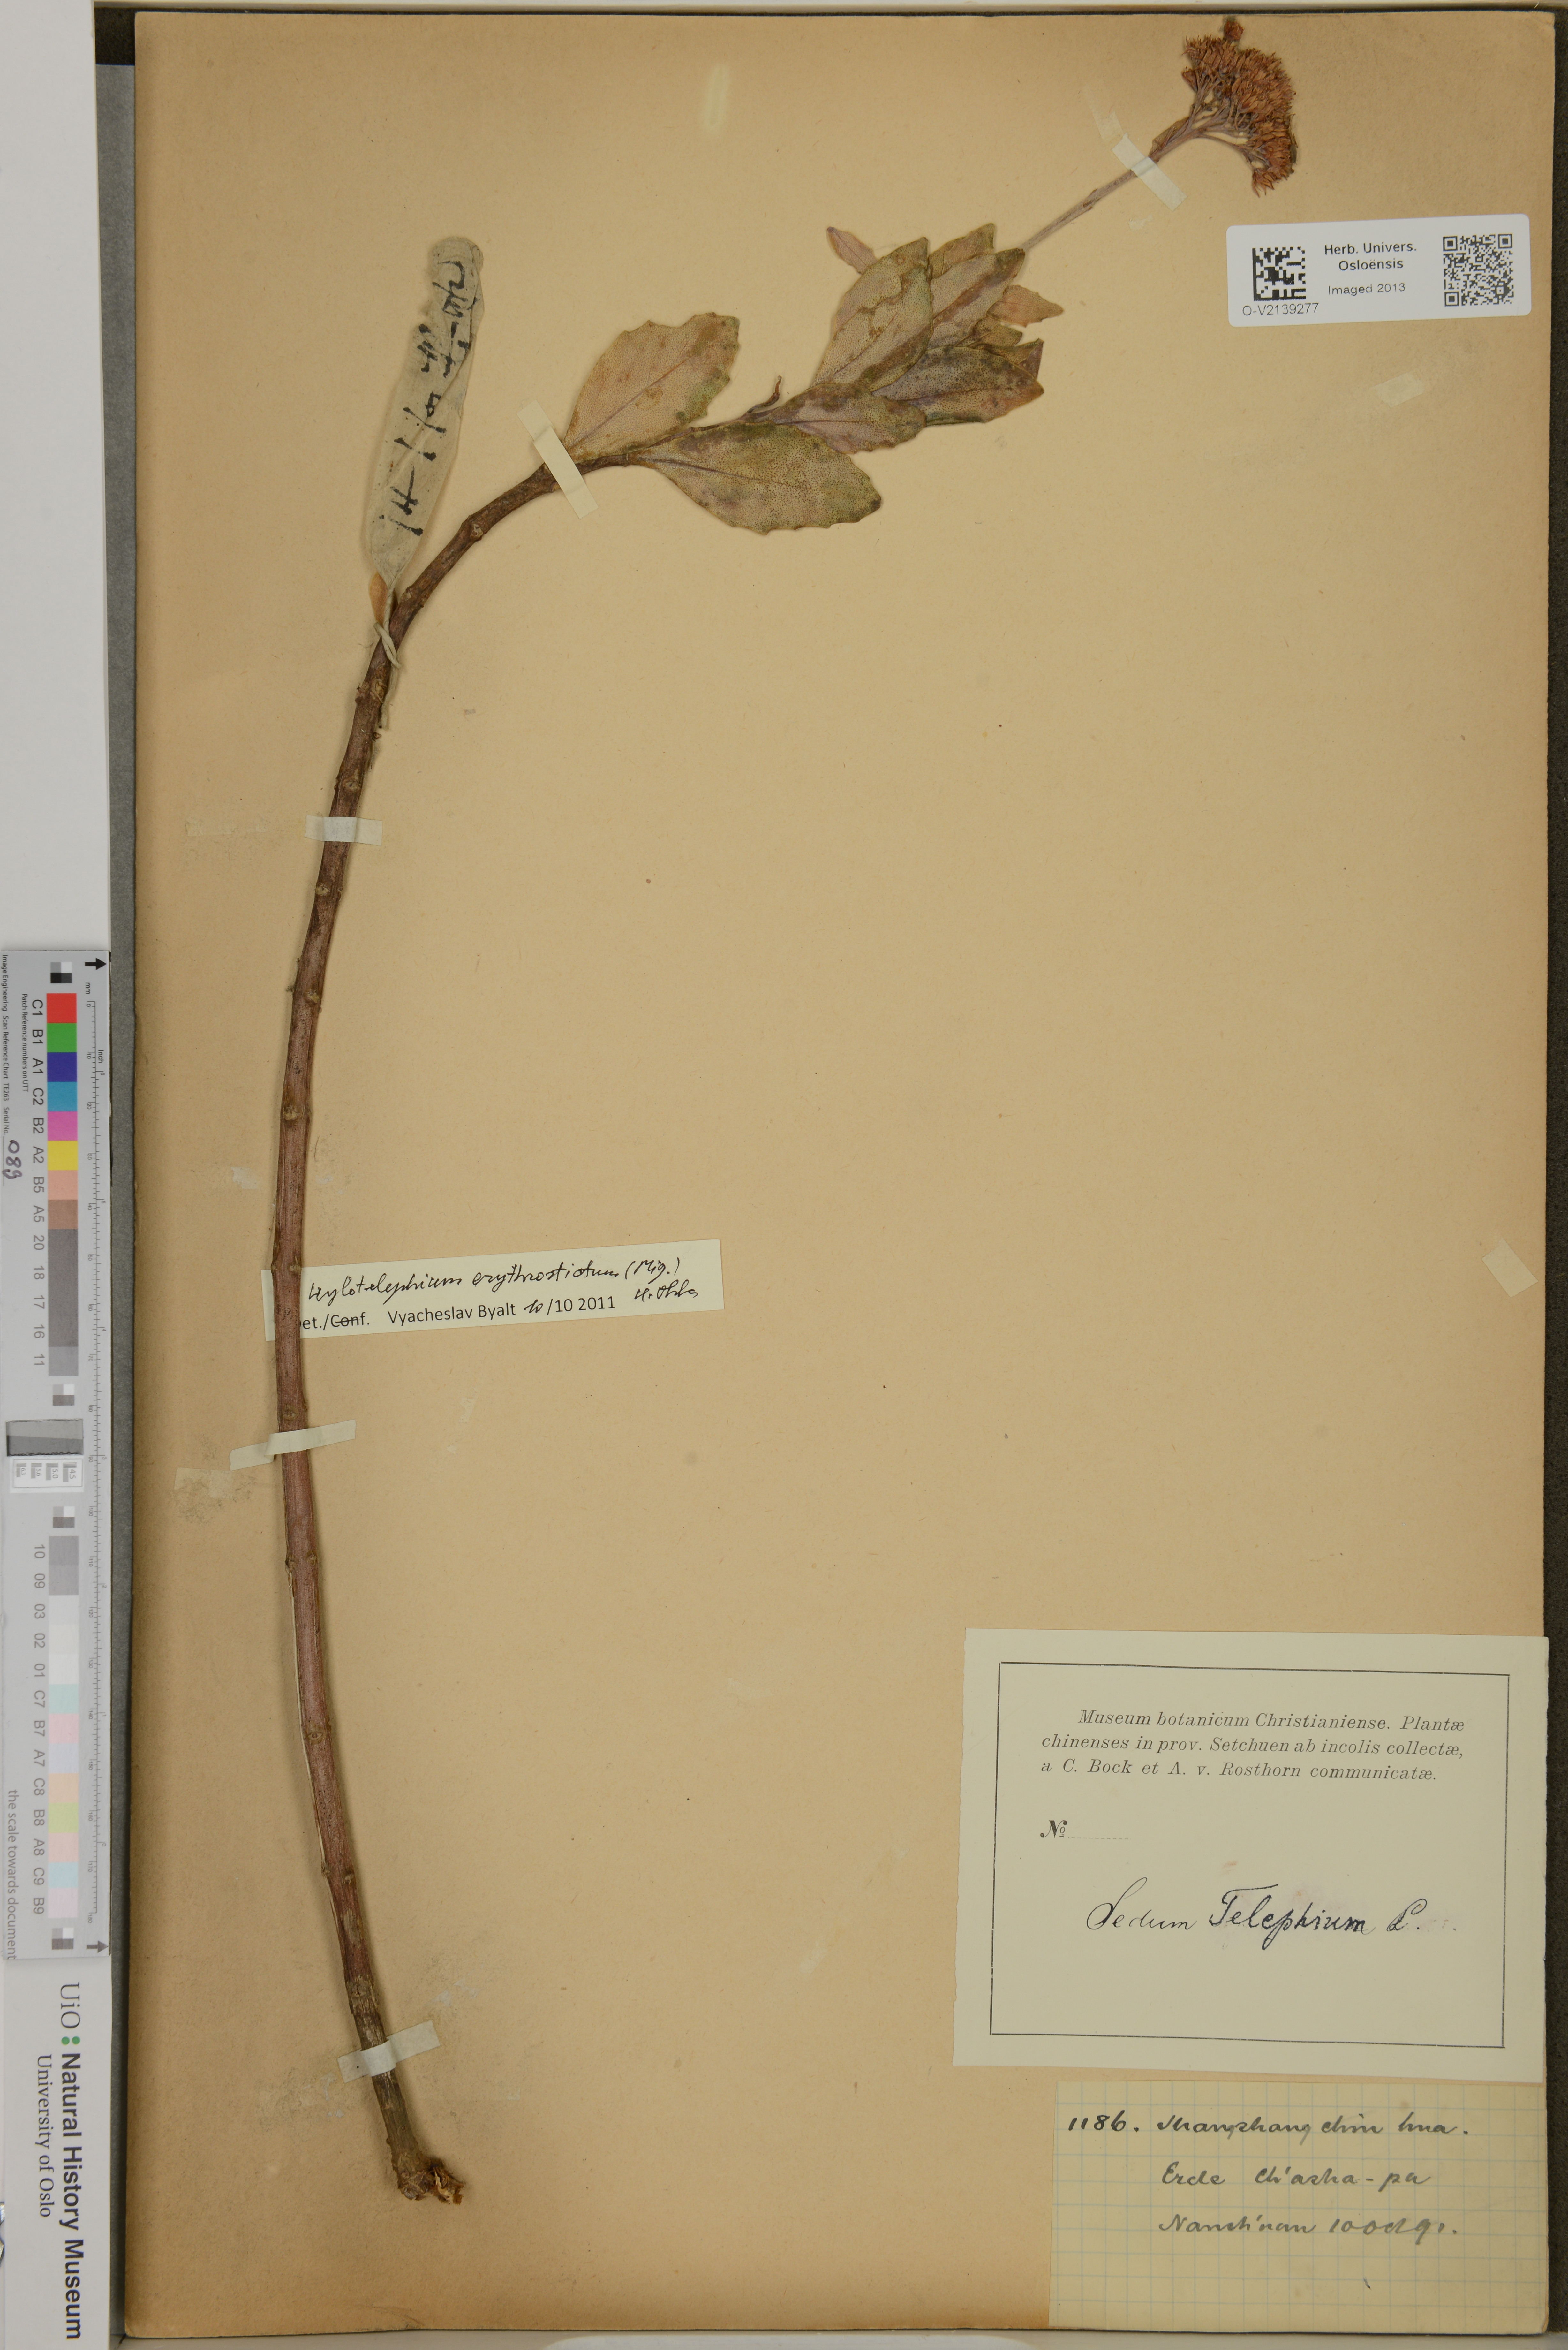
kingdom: Plantae
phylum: Tracheophyta
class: Magnoliopsida
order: Saxifragales
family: Crassulaceae
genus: Hylotelephium
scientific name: Hylotelephium erythrostictum
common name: Garden stonecrop
